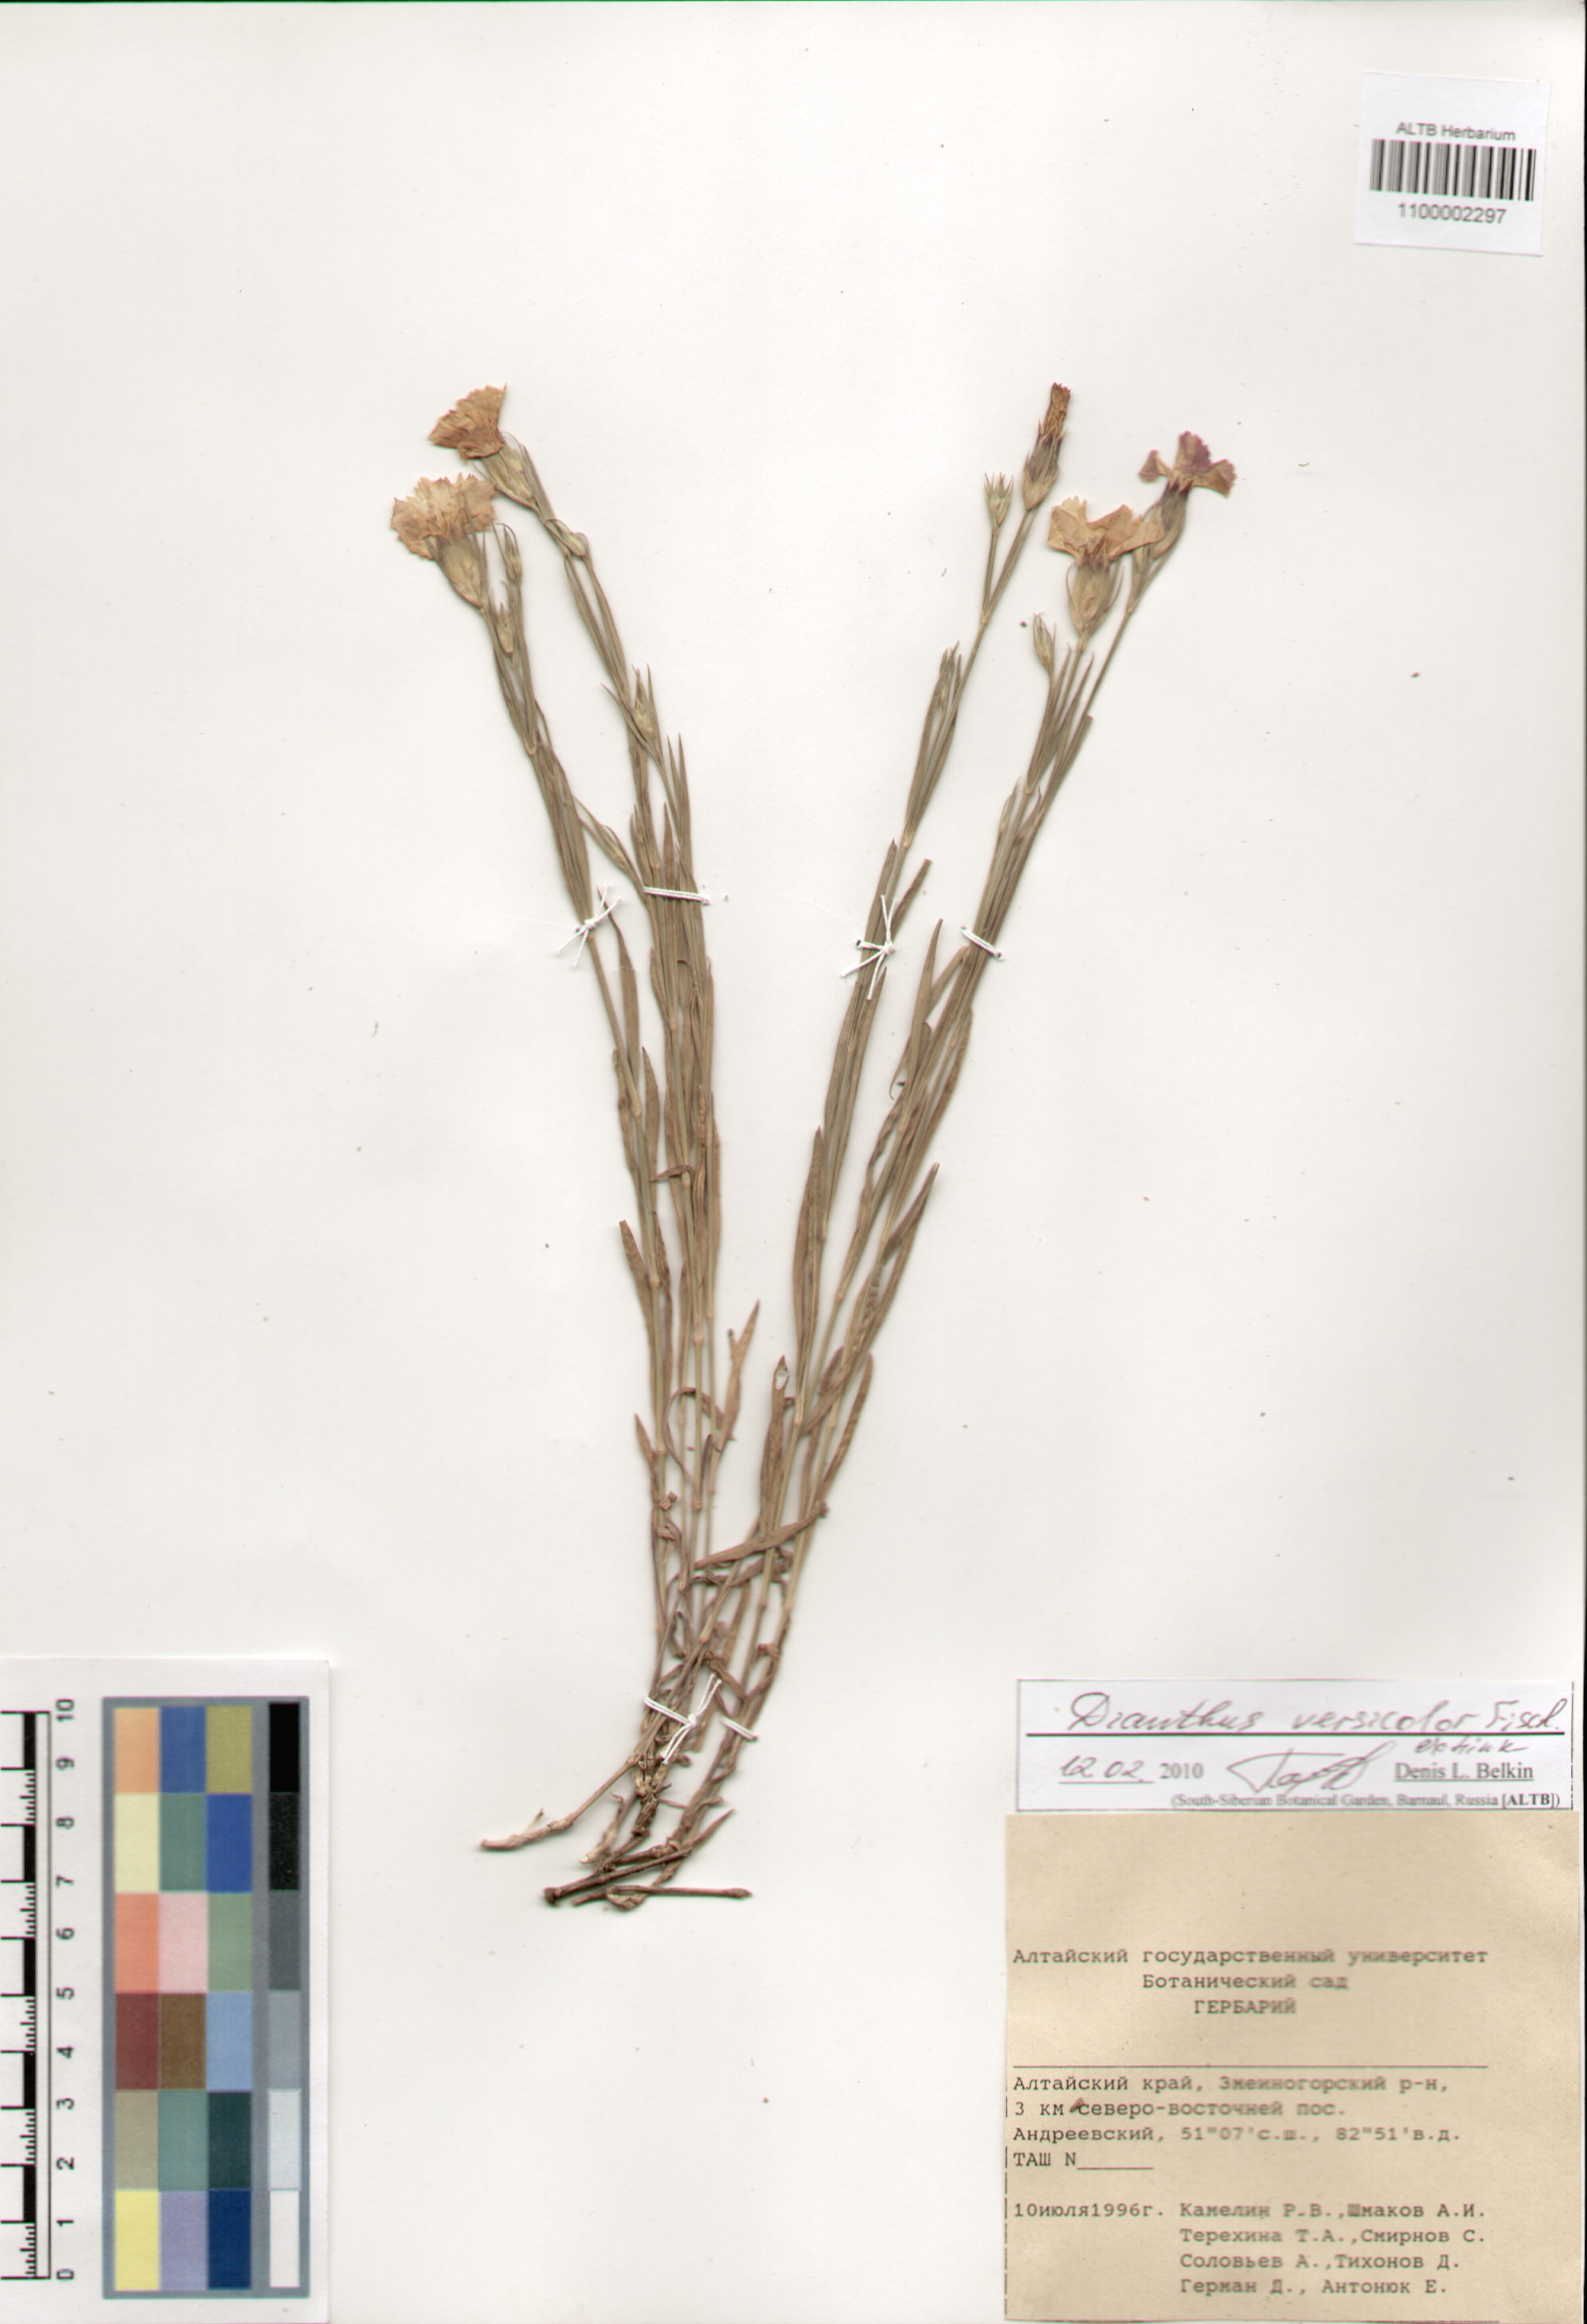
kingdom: Plantae
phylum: Tracheophyta
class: Magnoliopsida
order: Caryophyllales
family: Caryophyllaceae
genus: Dianthus
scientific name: Dianthus chinensis
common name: Rainbow pink
